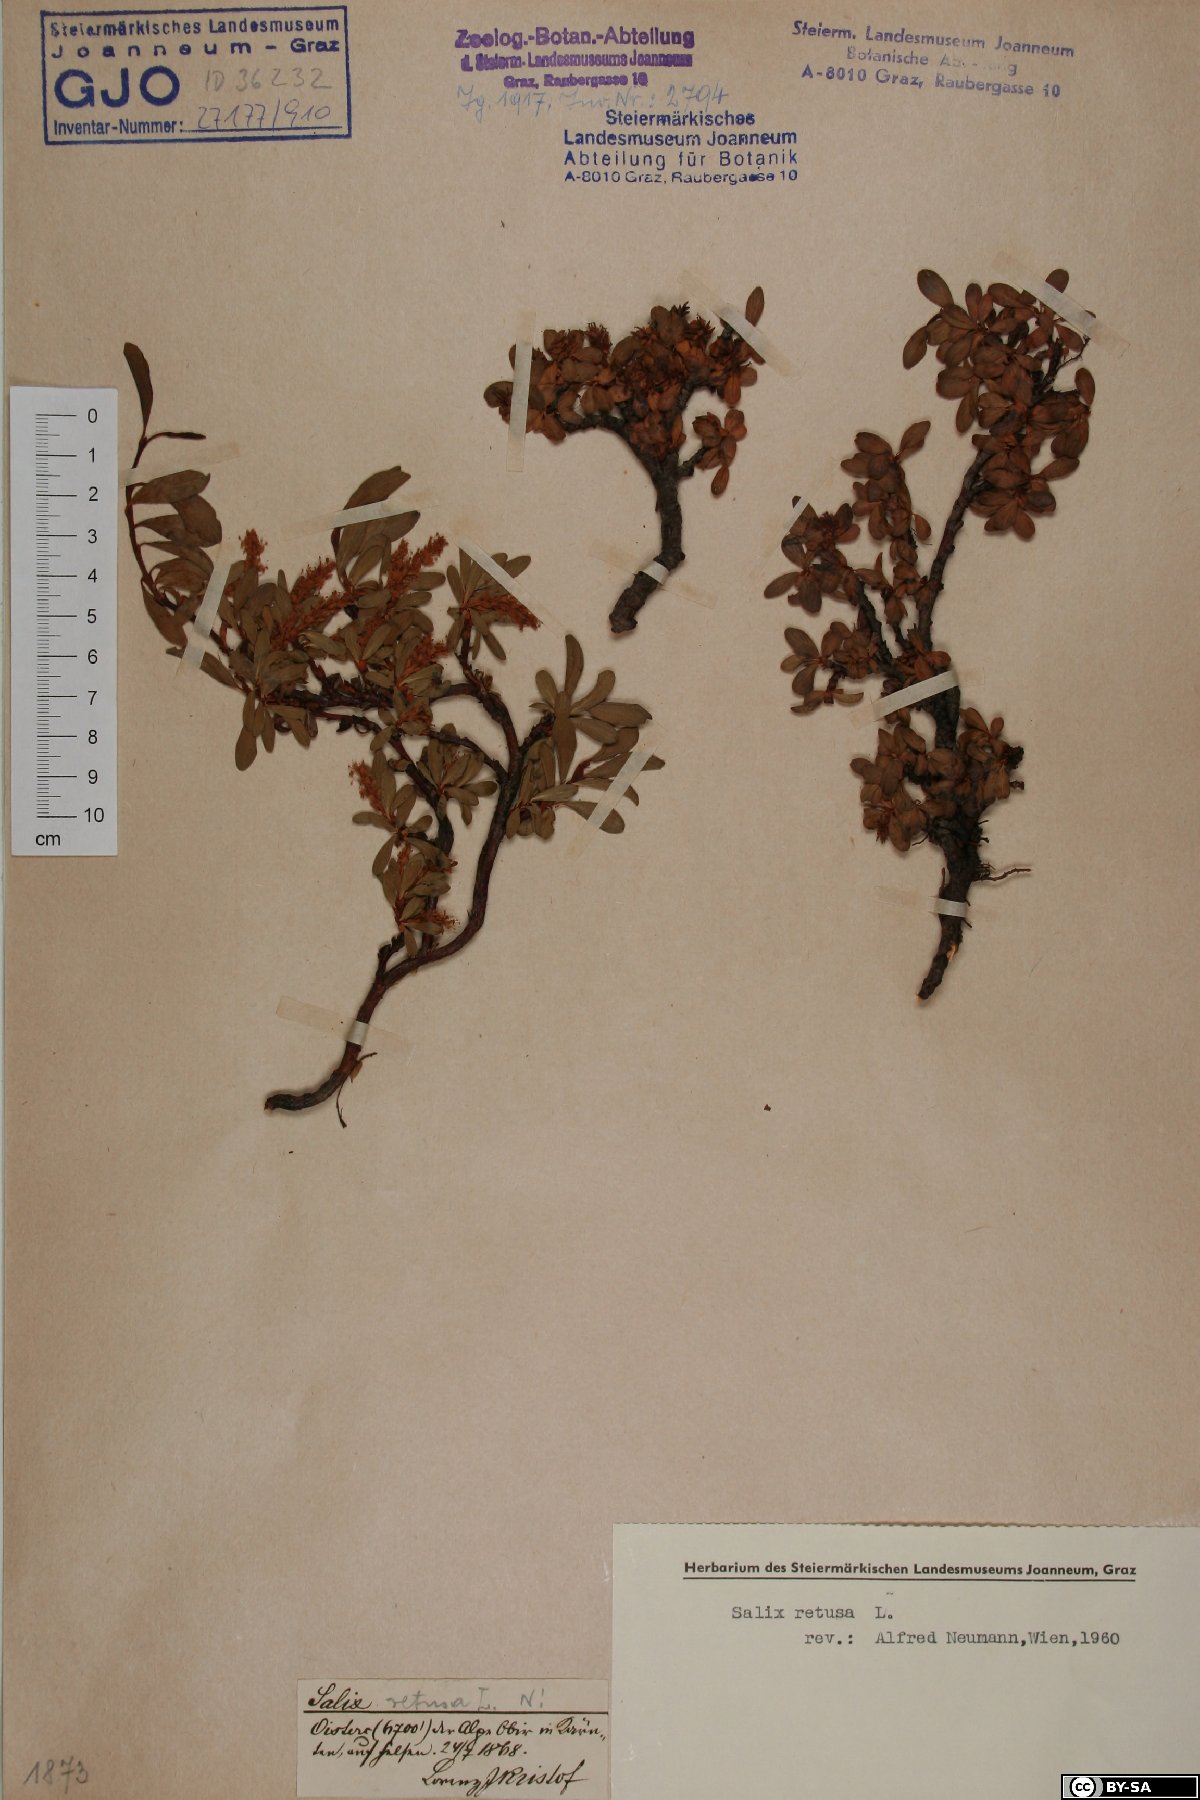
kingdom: Plantae
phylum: Tracheophyta
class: Magnoliopsida
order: Malpighiales
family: Salicaceae
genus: Salix
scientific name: Salix retusa
